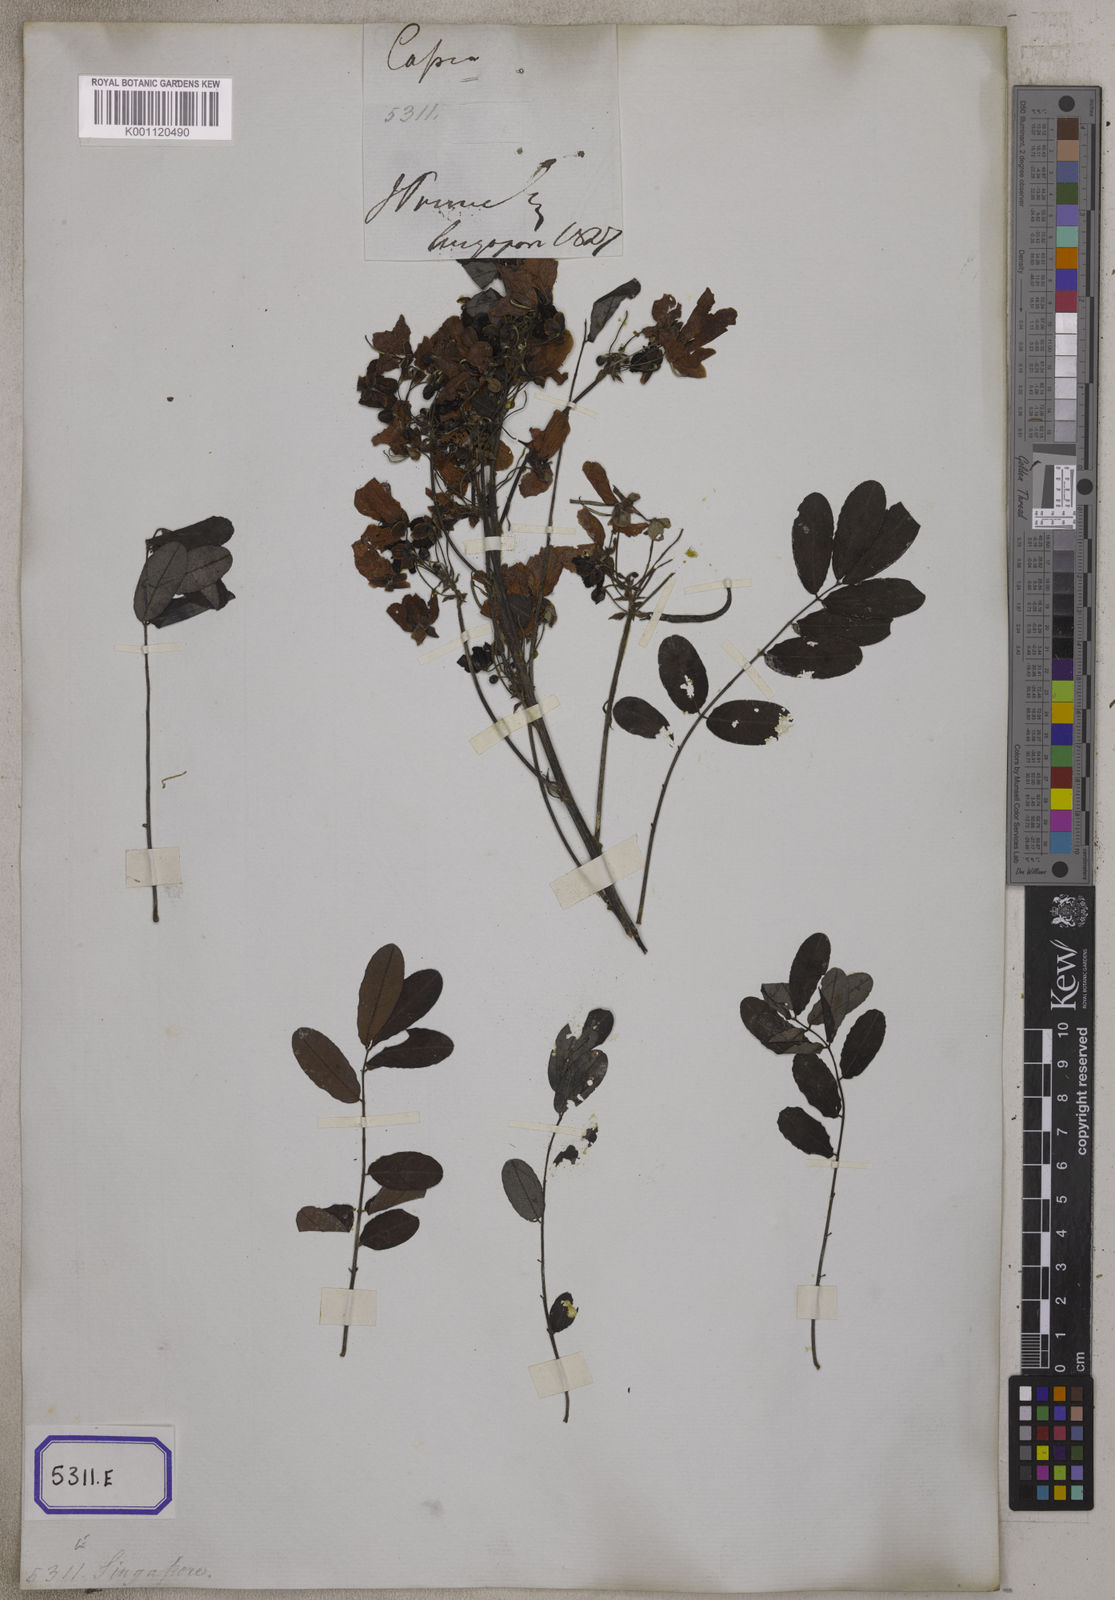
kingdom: Plantae
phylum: Tracheophyta
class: Magnoliopsida
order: Fabales
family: Fabaceae
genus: Senna
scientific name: Senna surattensis
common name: Glossy shower
